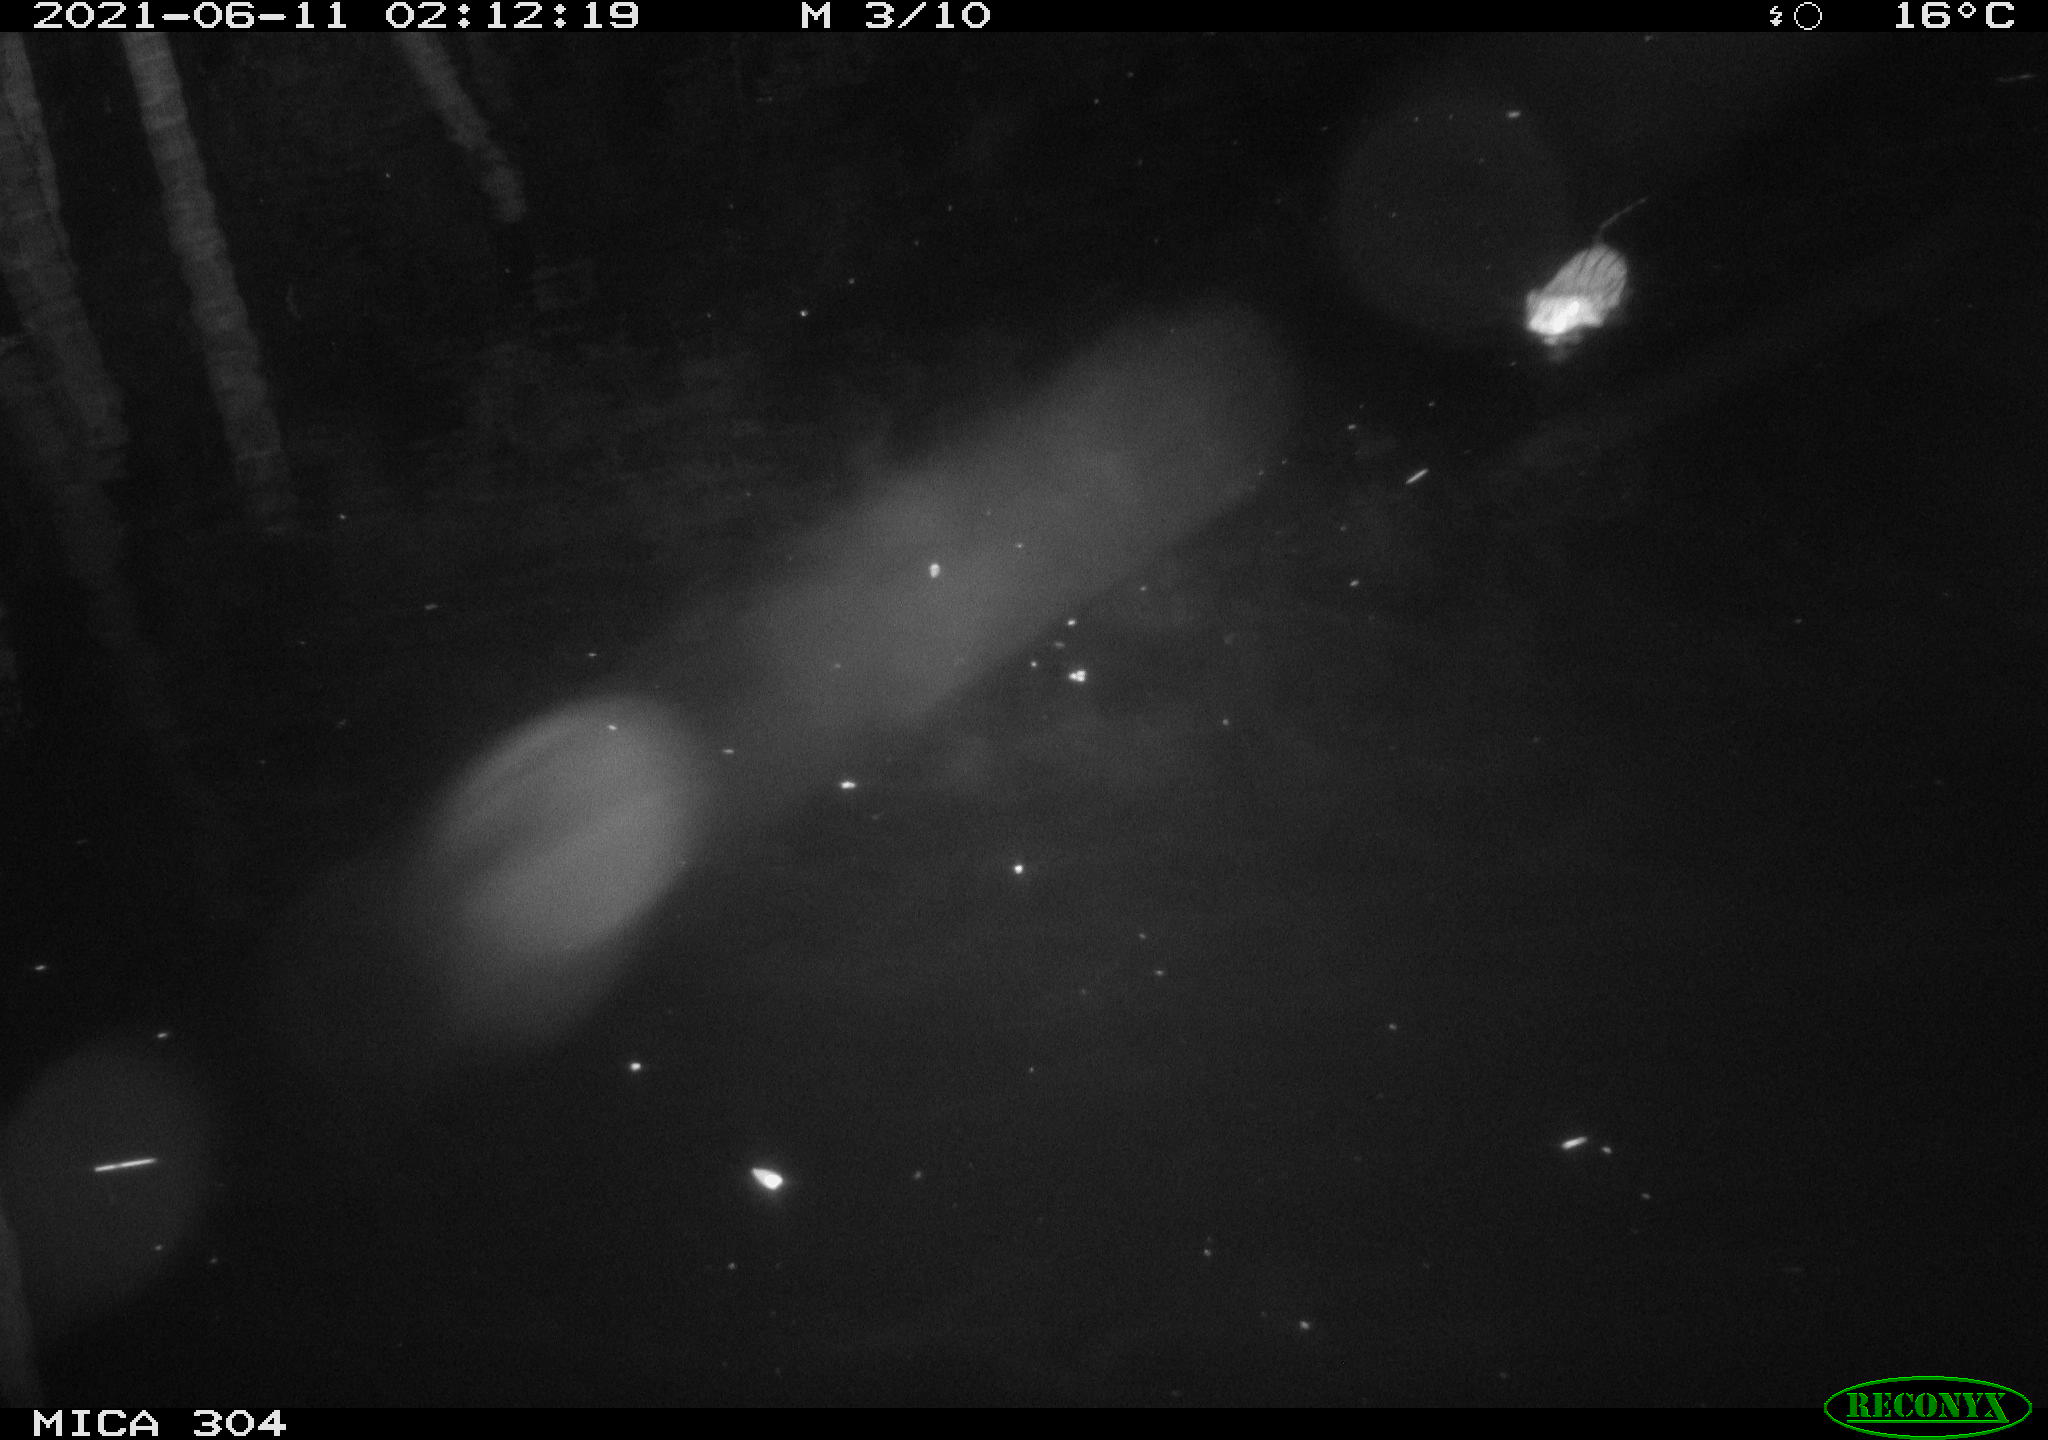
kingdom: Animalia
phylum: Chordata
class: Mammalia
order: Rodentia
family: Cricetidae
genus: Ondatra
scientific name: Ondatra zibethicus
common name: Muskrat
